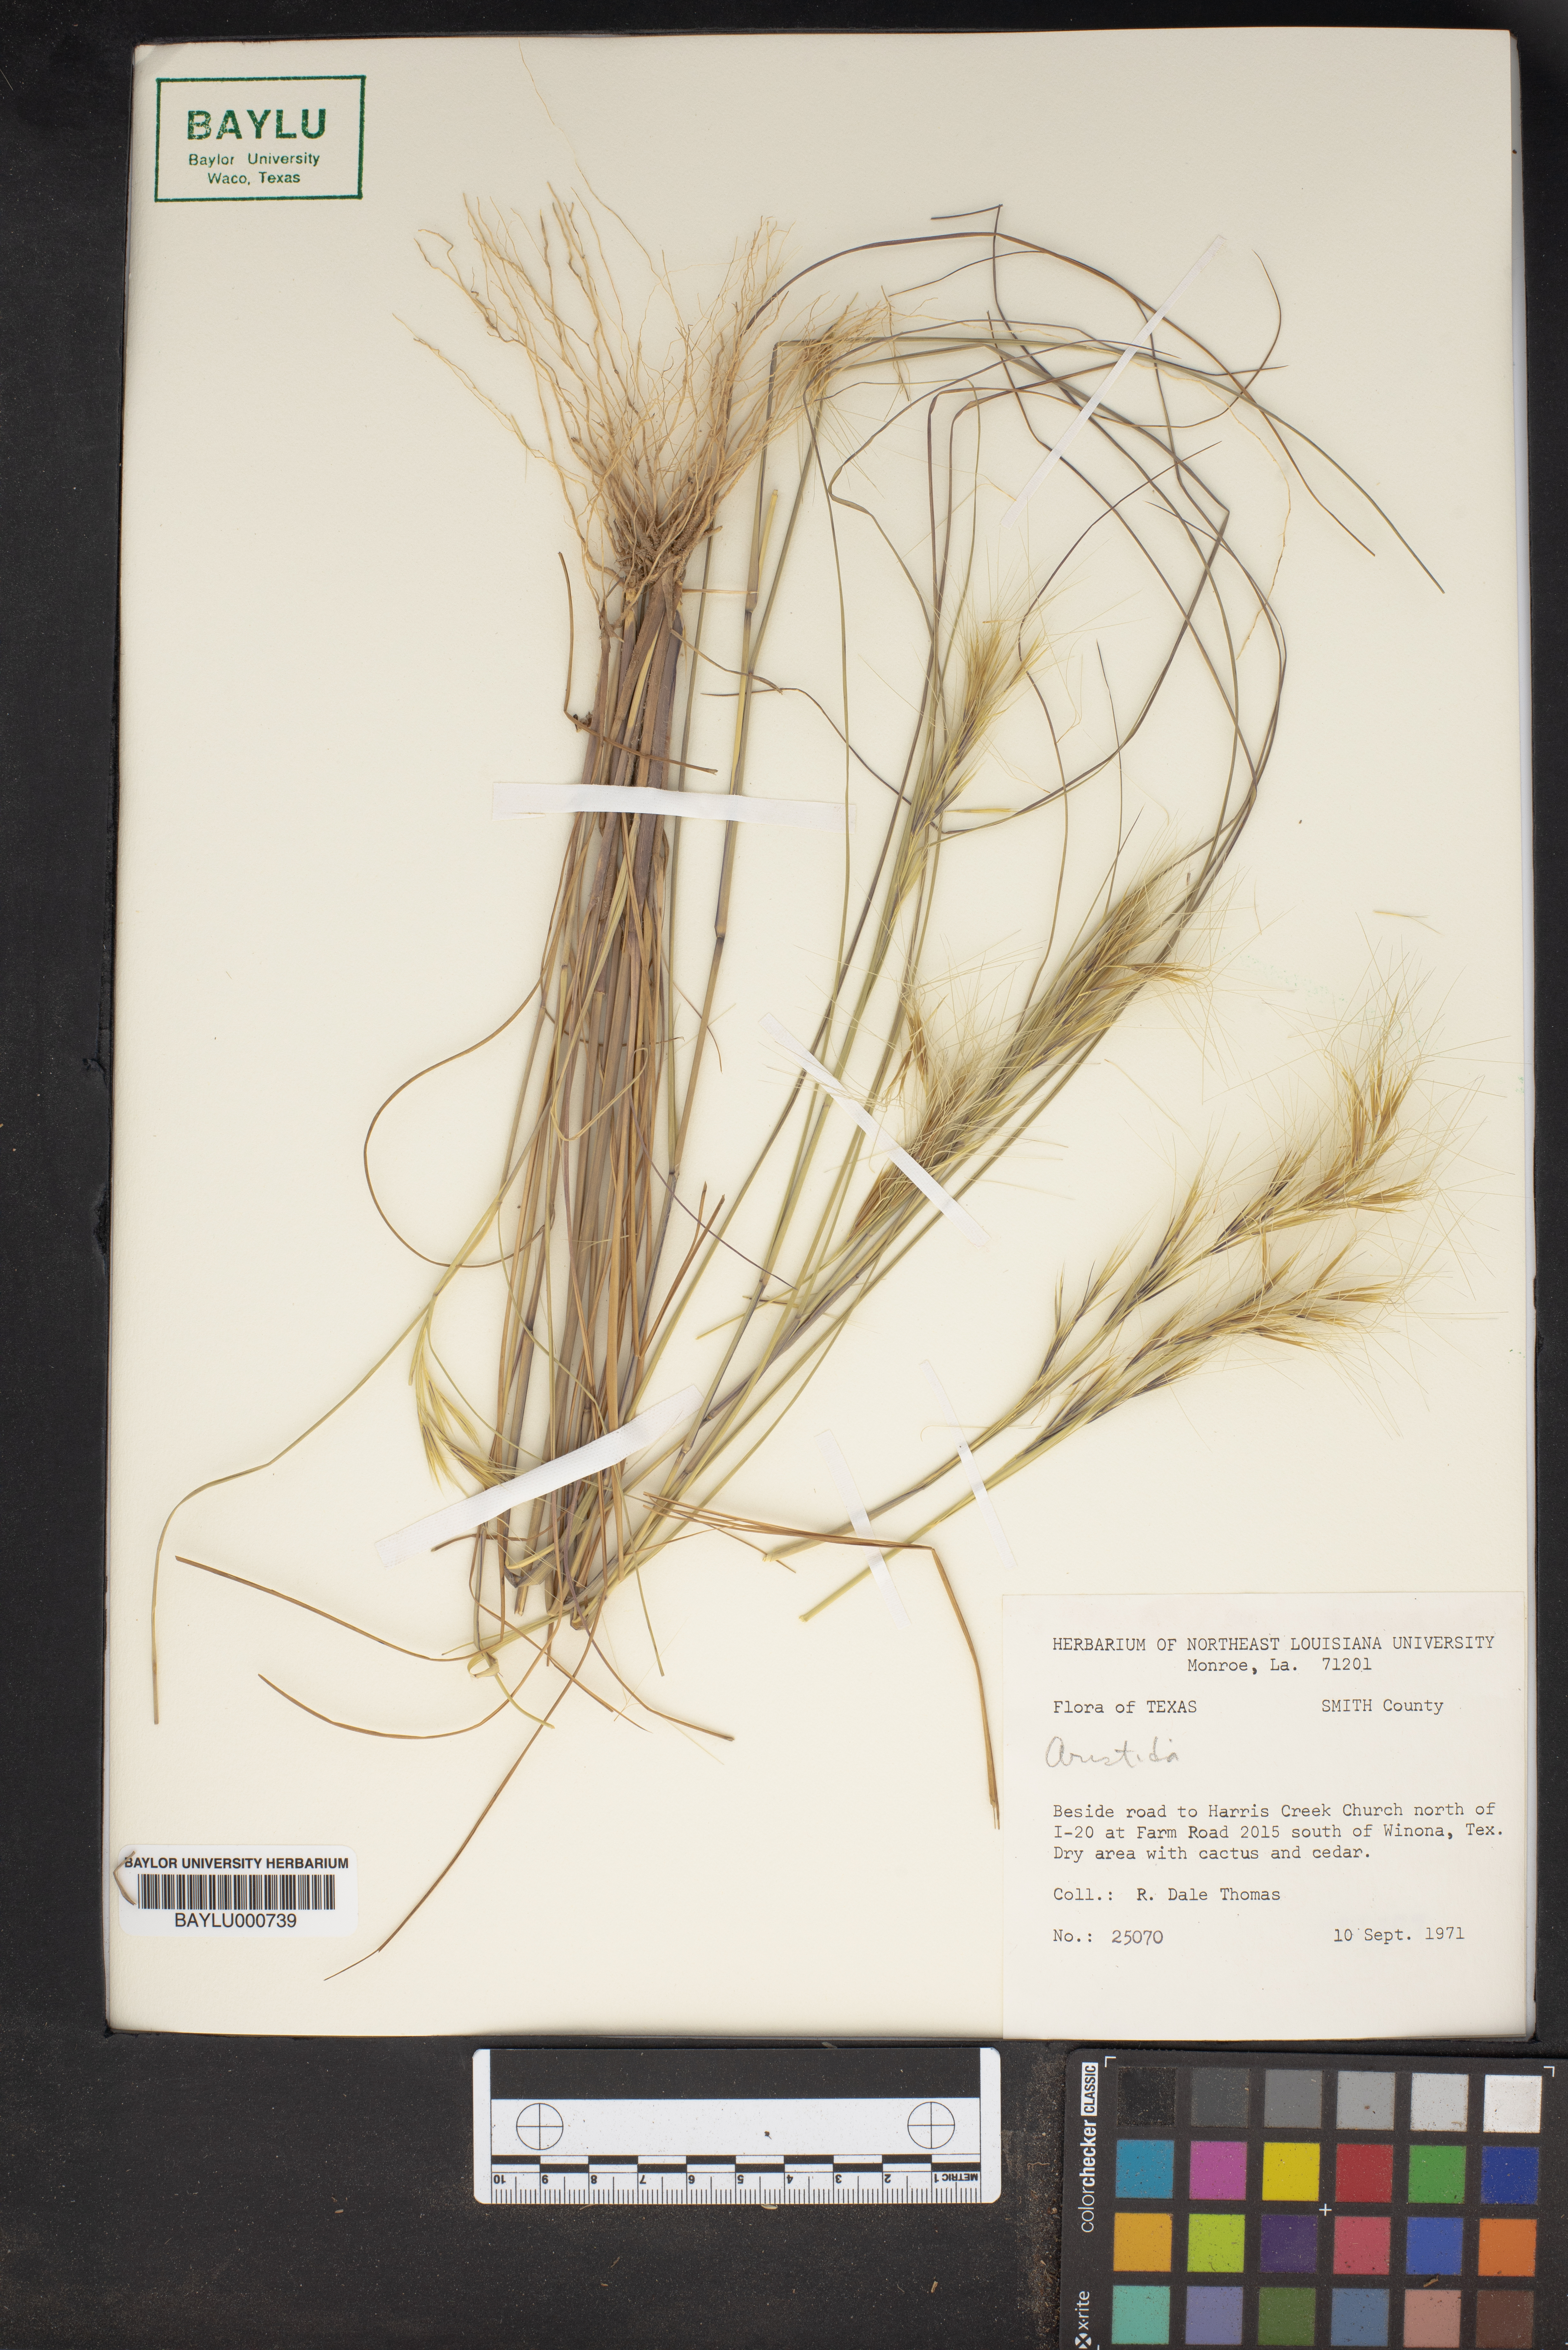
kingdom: Plantae
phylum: Tracheophyta
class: Liliopsida
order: Poales
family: Poaceae
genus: Aristida
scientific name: Aristida
